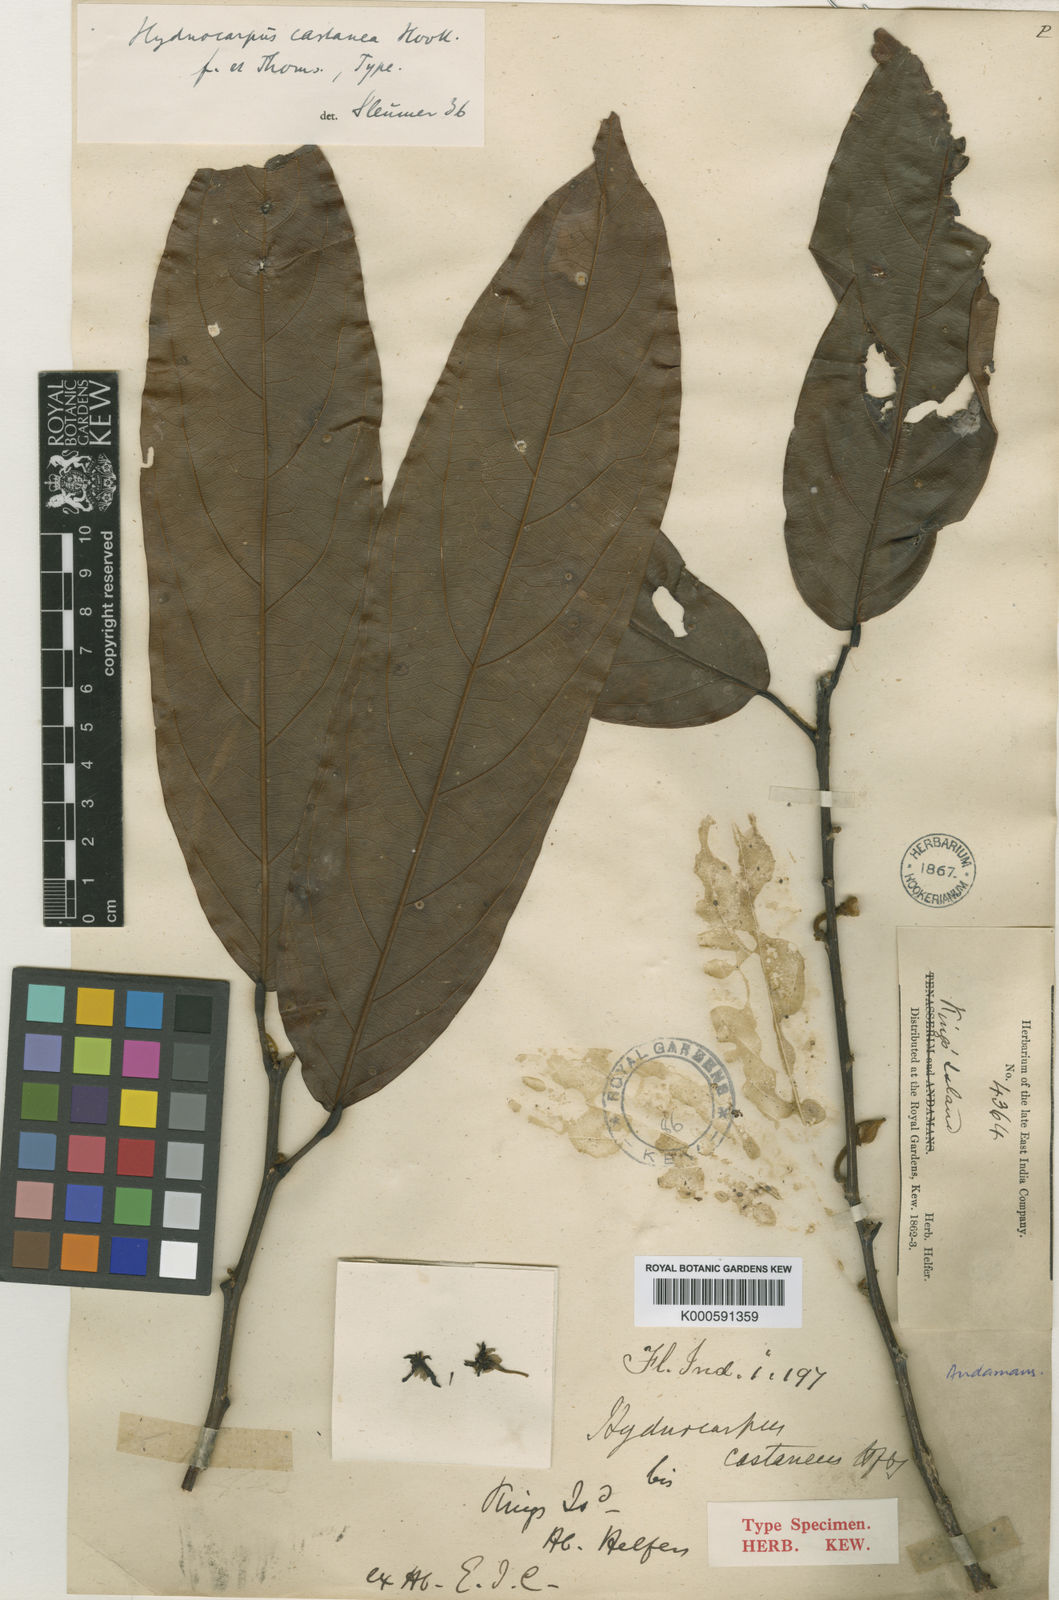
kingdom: Plantae
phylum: Tracheophyta
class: Magnoliopsida
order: Malpighiales
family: Achariaceae
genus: Hydnocarpus
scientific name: Hydnocarpus castaneus
